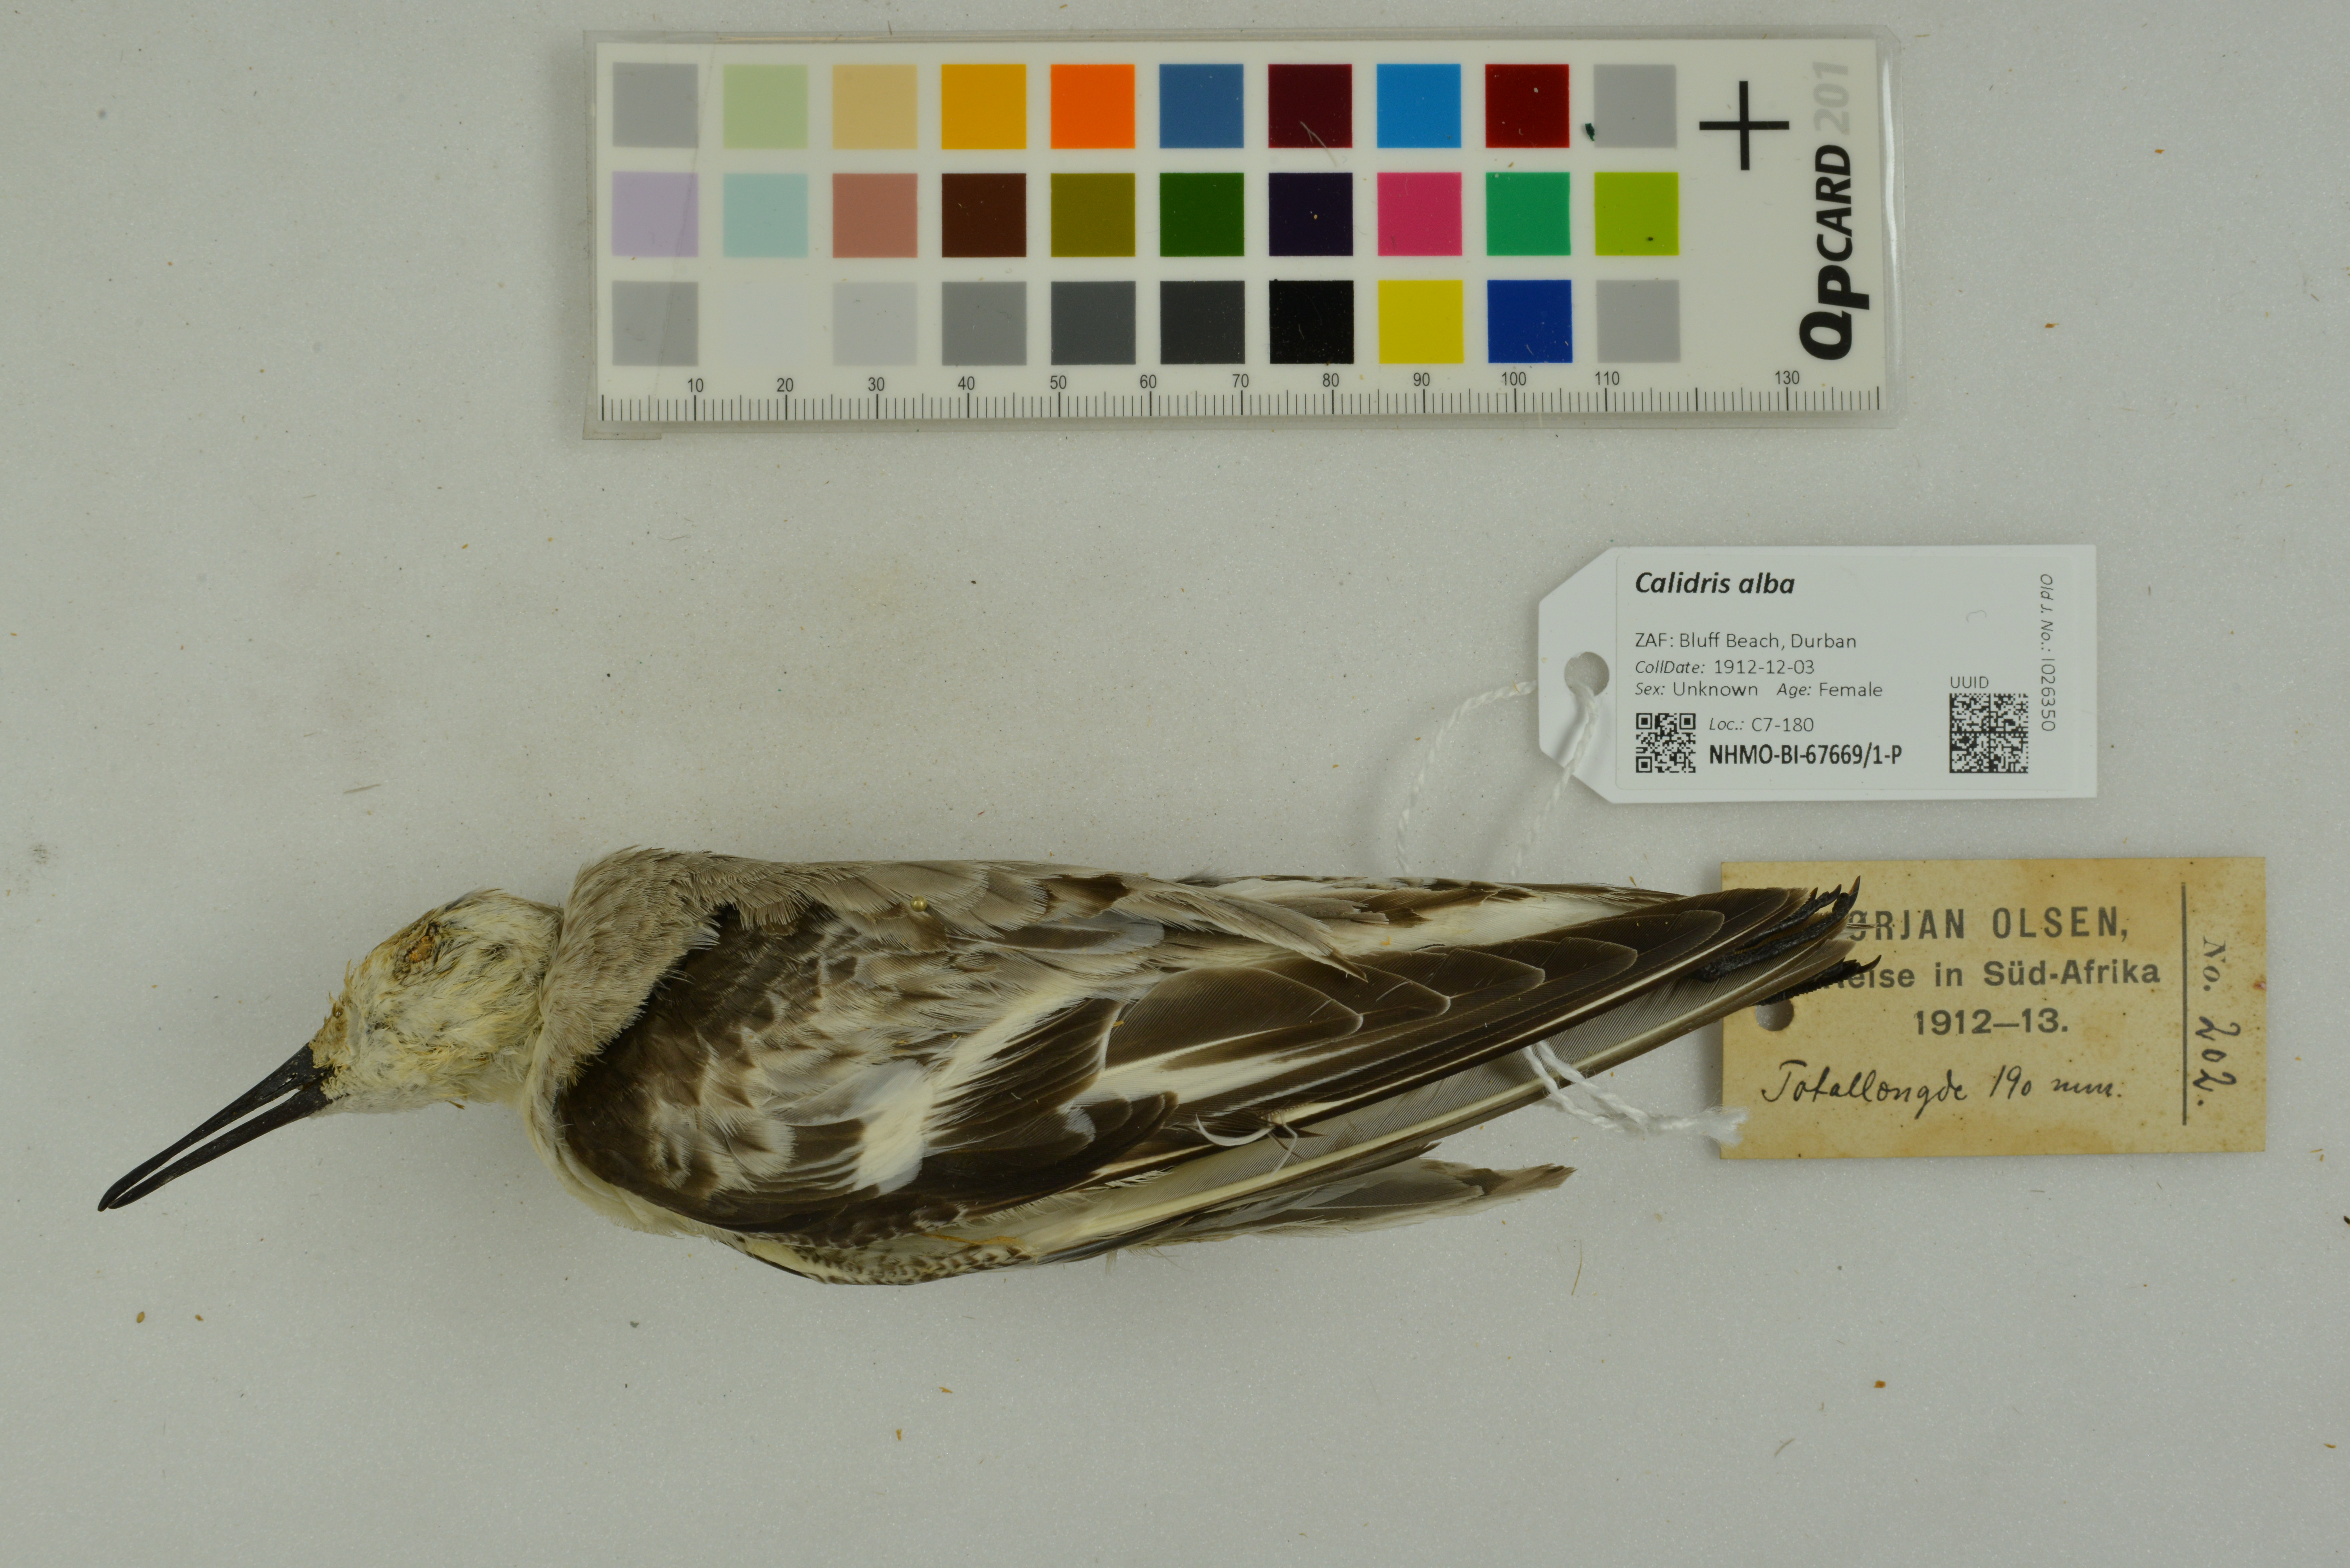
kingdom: Animalia
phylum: Chordata
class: Aves
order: Charadriiformes
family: Scolopacidae
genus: Calidris
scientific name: Calidris alba
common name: Sanderling
